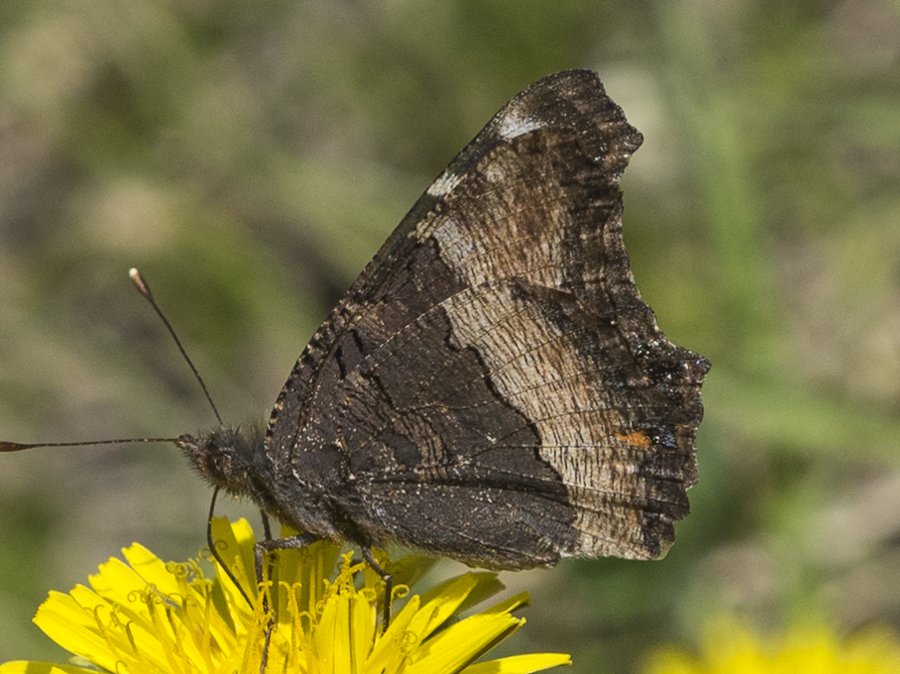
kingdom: Animalia
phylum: Arthropoda
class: Insecta
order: Lepidoptera
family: Nymphalidae
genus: Aglais
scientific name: Aglais milberti
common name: Milbert's Tortoiseshell
